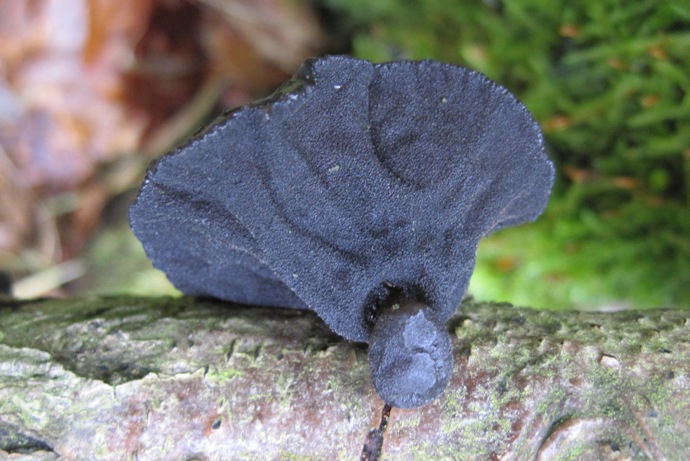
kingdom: Fungi
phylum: Basidiomycota
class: Agaricomycetes
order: Auriculariales
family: Auriculariaceae
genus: Exidia
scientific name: Exidia glandulosa
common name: ege-bævretop
